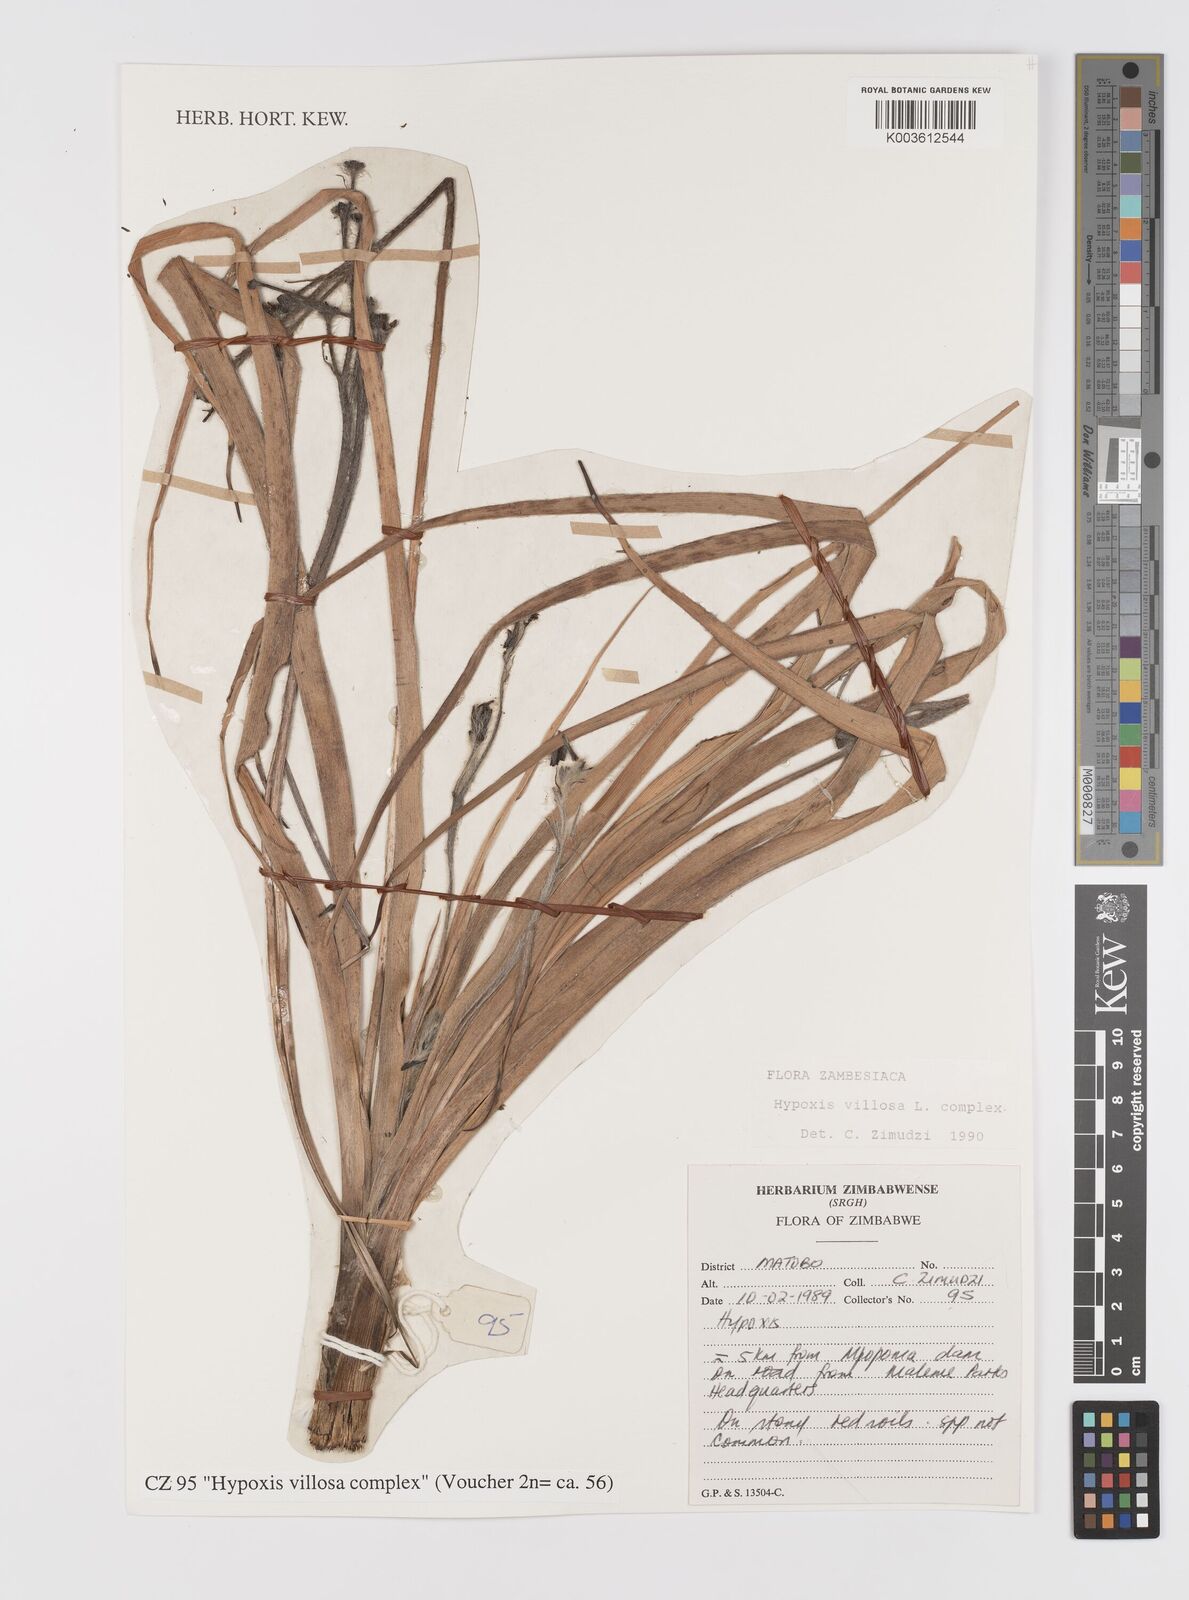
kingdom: Plantae
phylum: Tracheophyta
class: Liliopsida
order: Asparagales
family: Hypoxidaceae
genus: Hypoxis
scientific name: Hypoxis villosa
